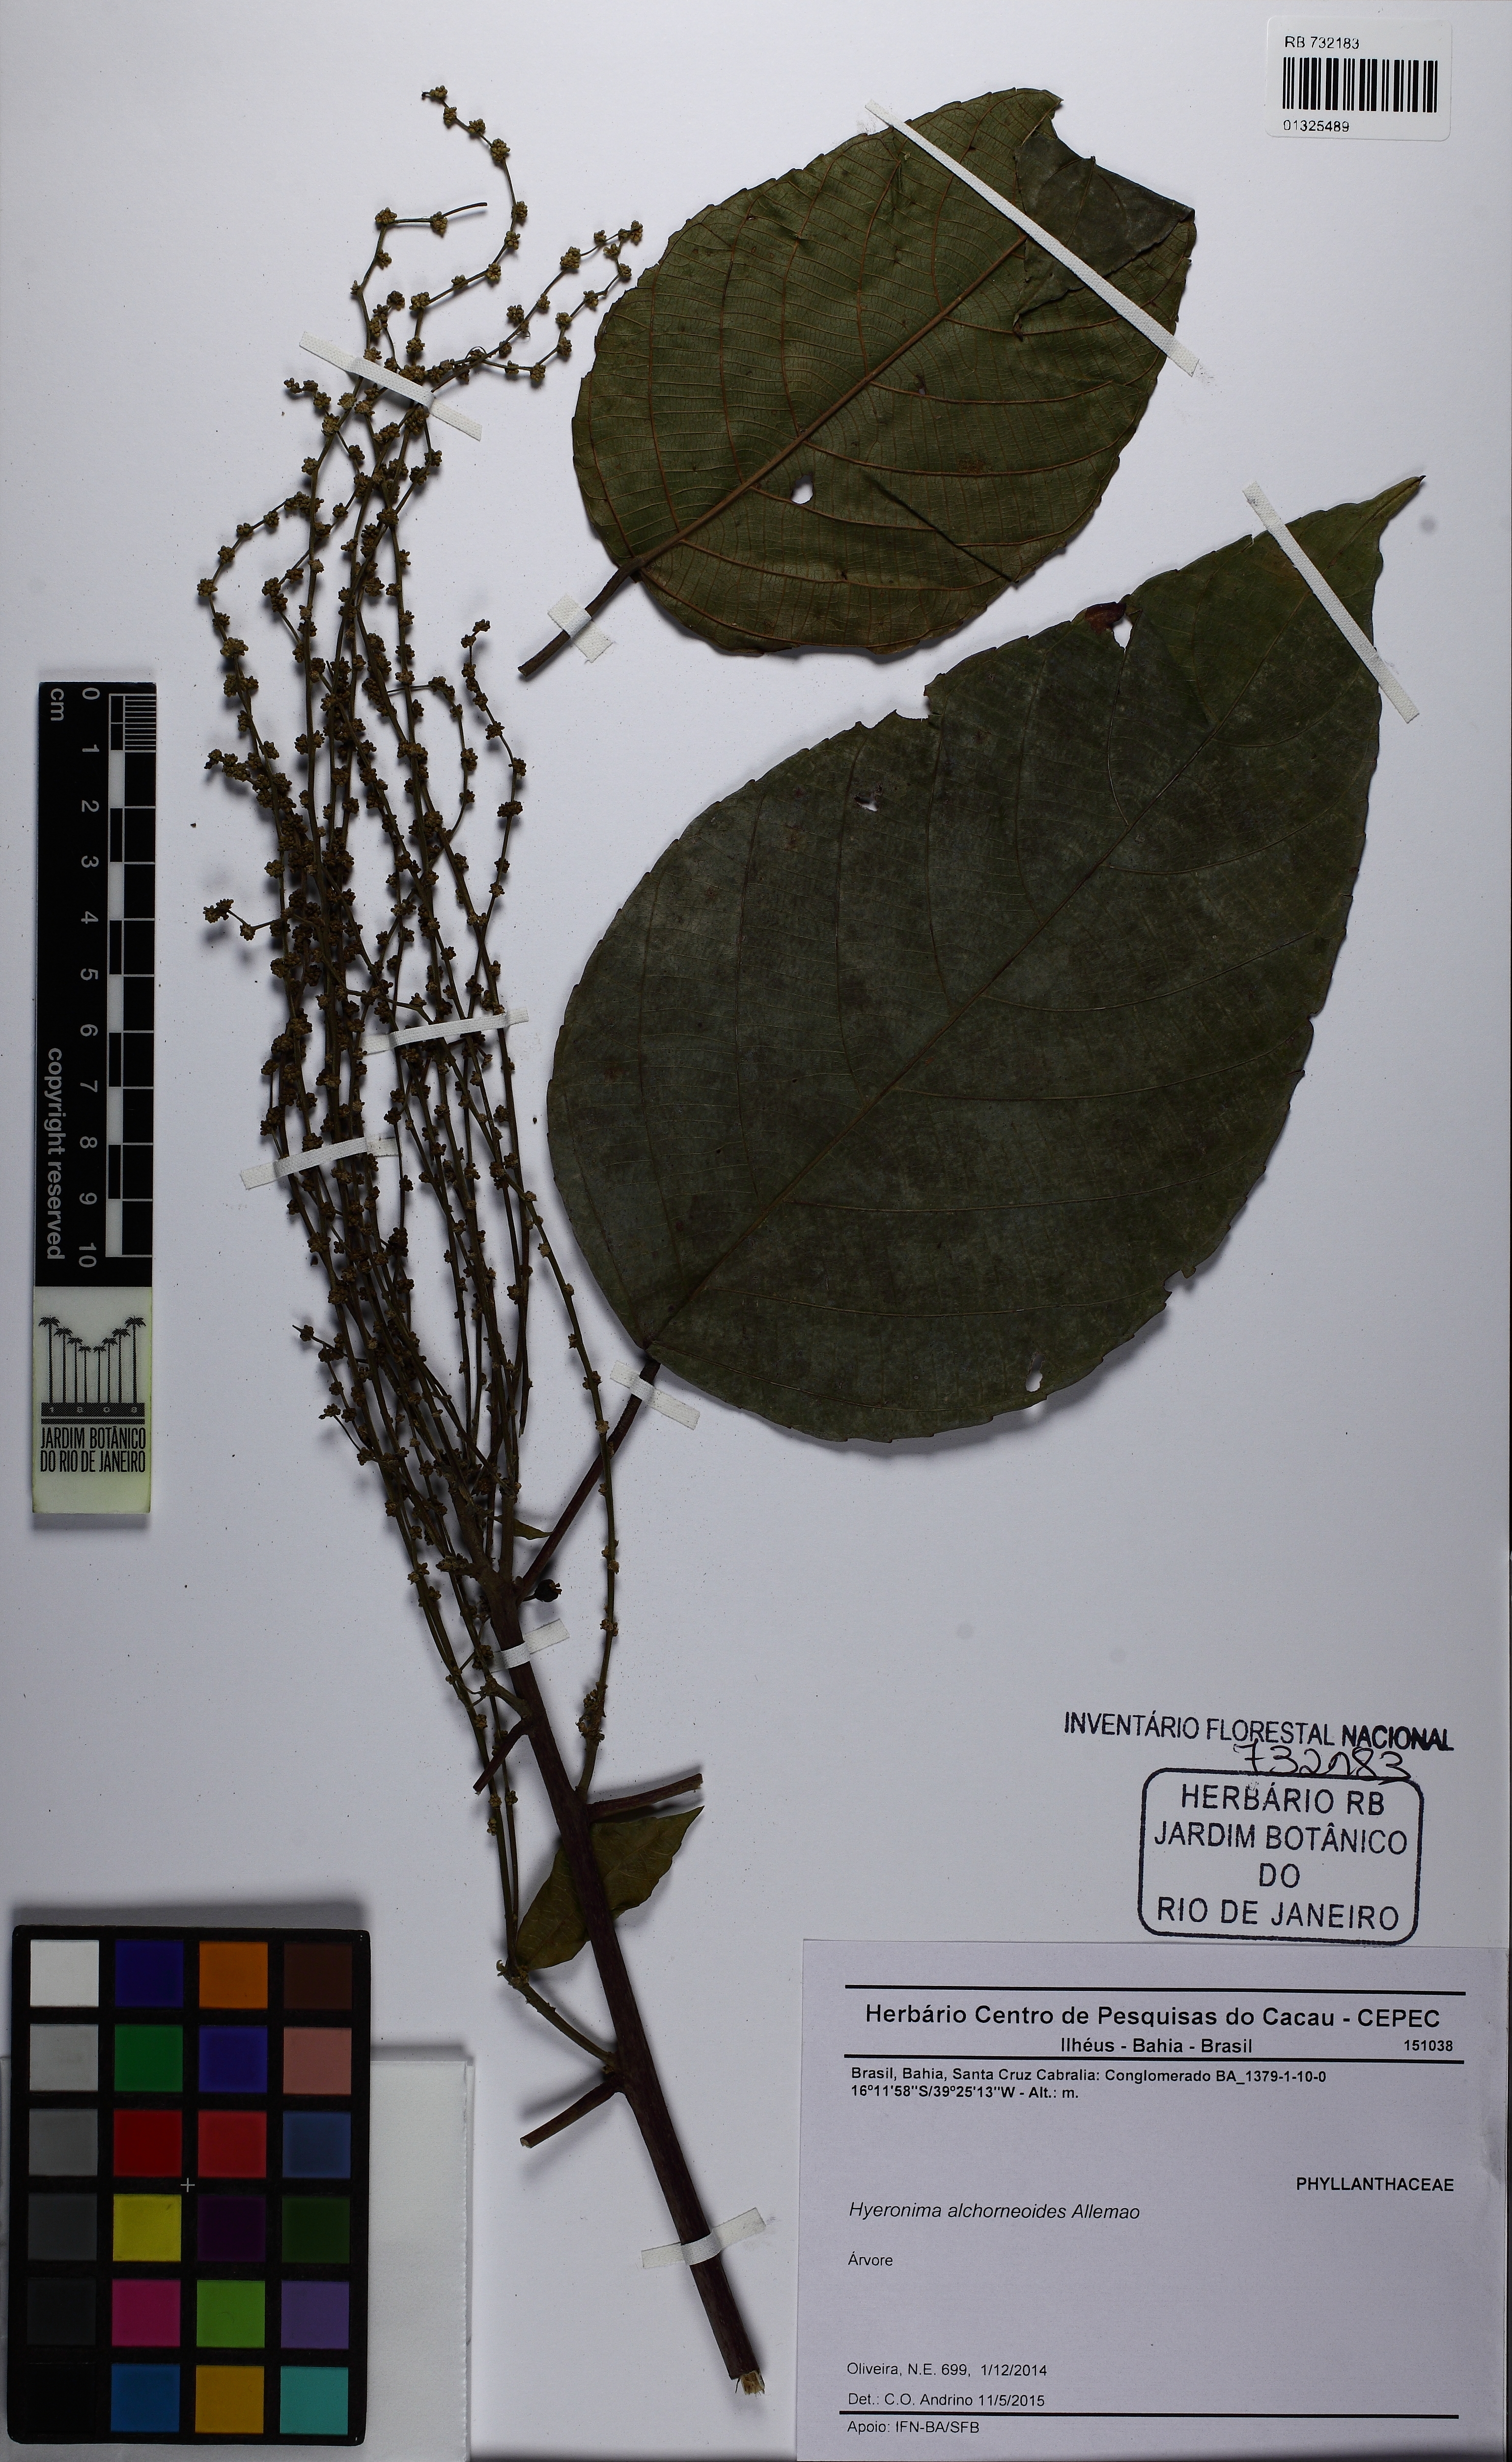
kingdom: Plantae
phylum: Tracheophyta
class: Magnoliopsida
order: Malpighiales
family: Phyllanthaceae
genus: Hieronyma
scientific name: Hieronyma alchorneoides
